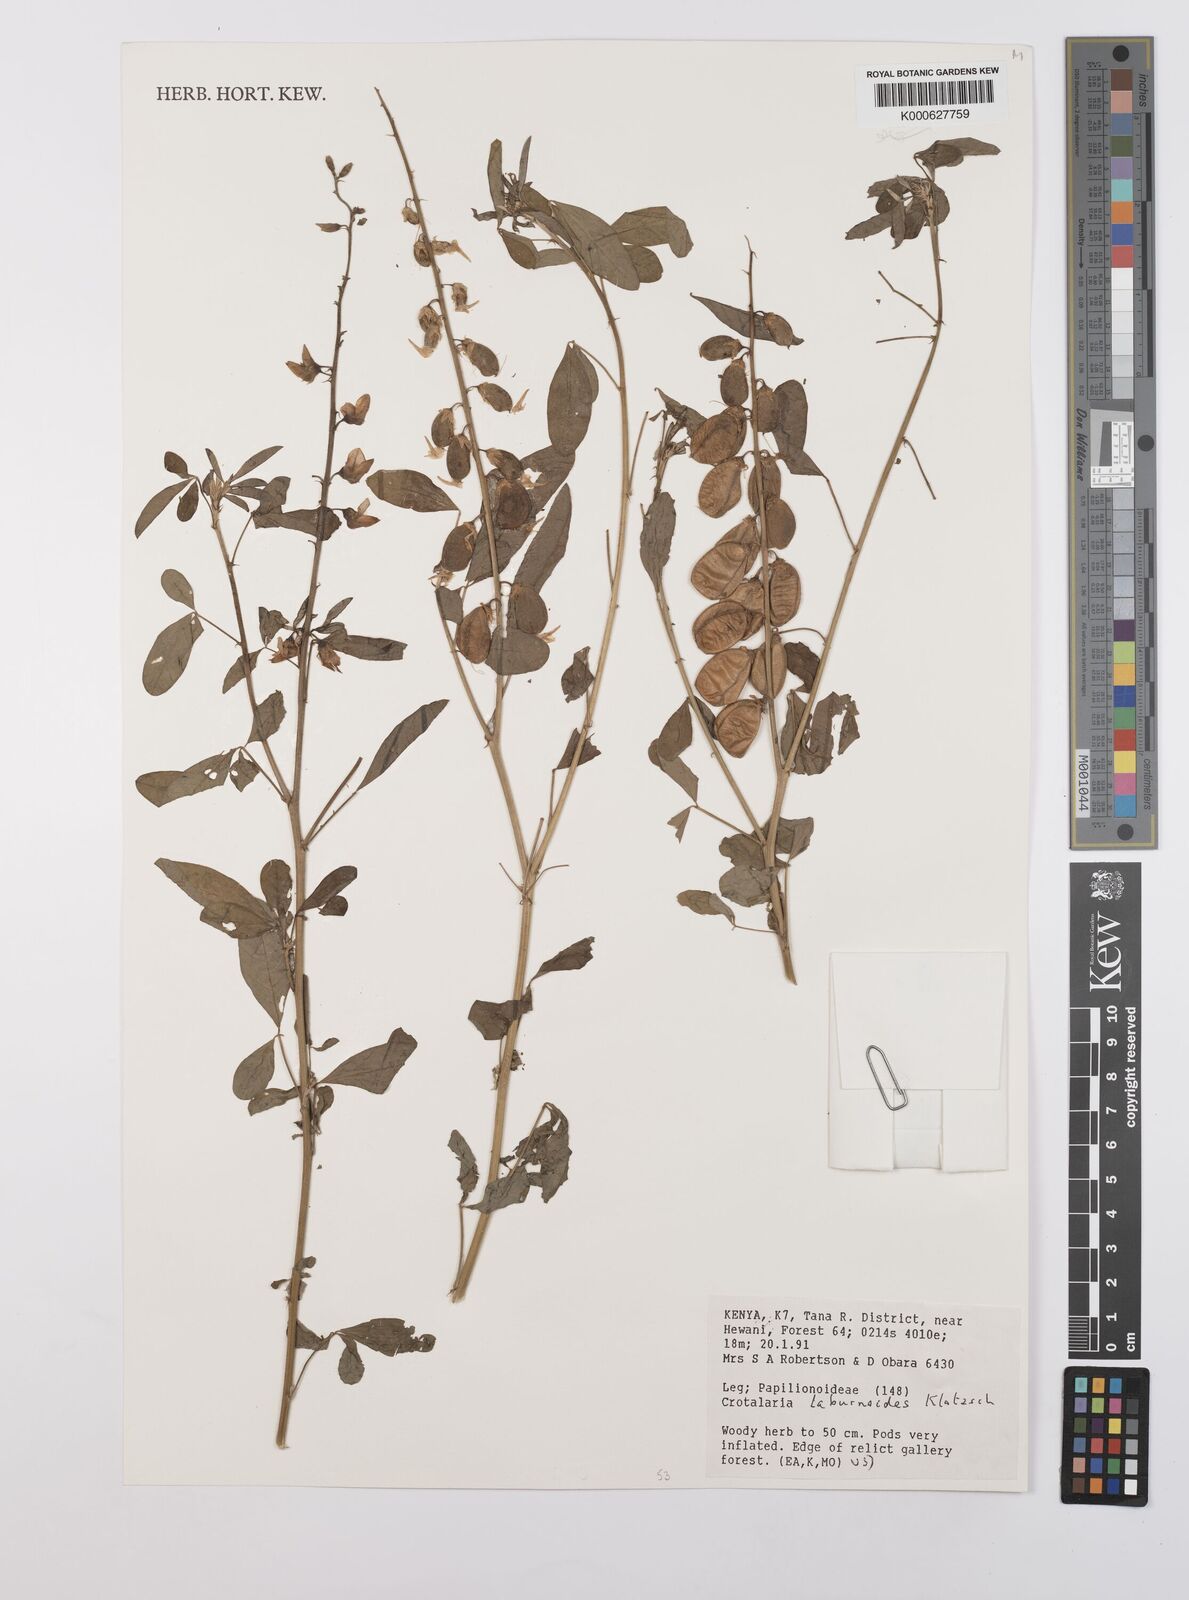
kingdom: Plantae
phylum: Tracheophyta
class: Magnoliopsida
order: Fabales
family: Fabaceae
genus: Crotalaria
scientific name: Crotalaria laburnoides
